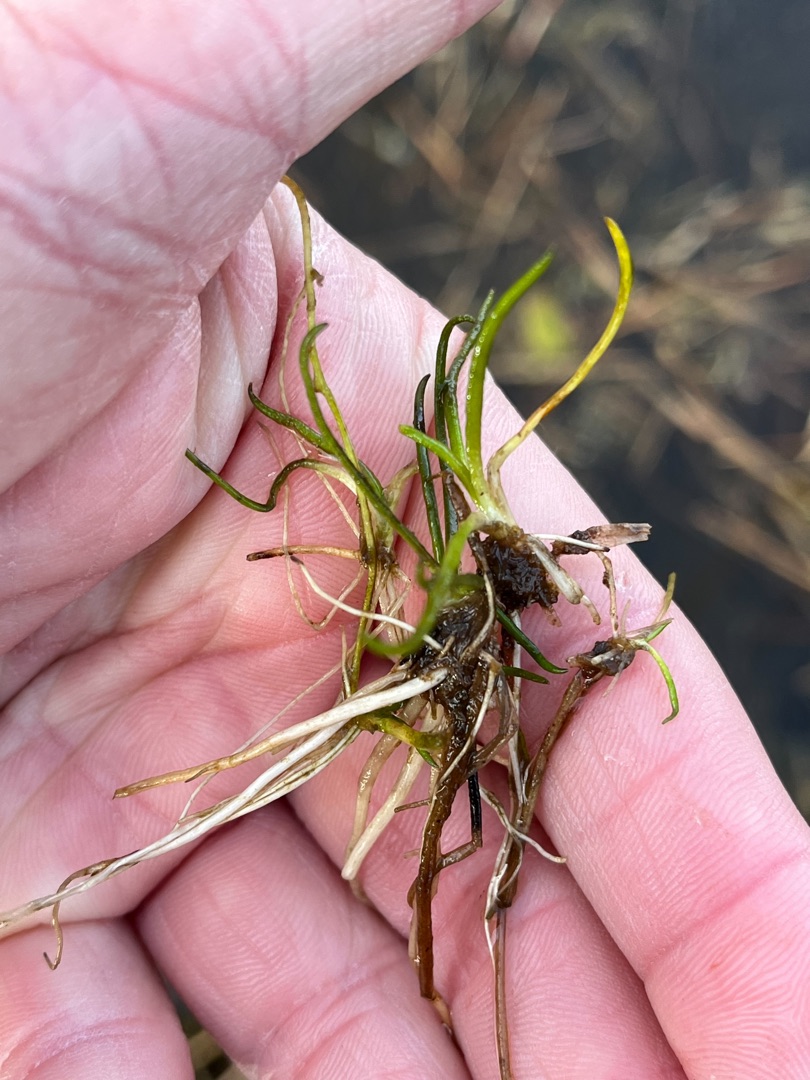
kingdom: Plantae
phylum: Tracheophyta
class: Magnoliopsida
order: Lamiales
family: Plantaginaceae
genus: Littorella
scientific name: Littorella uniflora
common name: Strandbo
